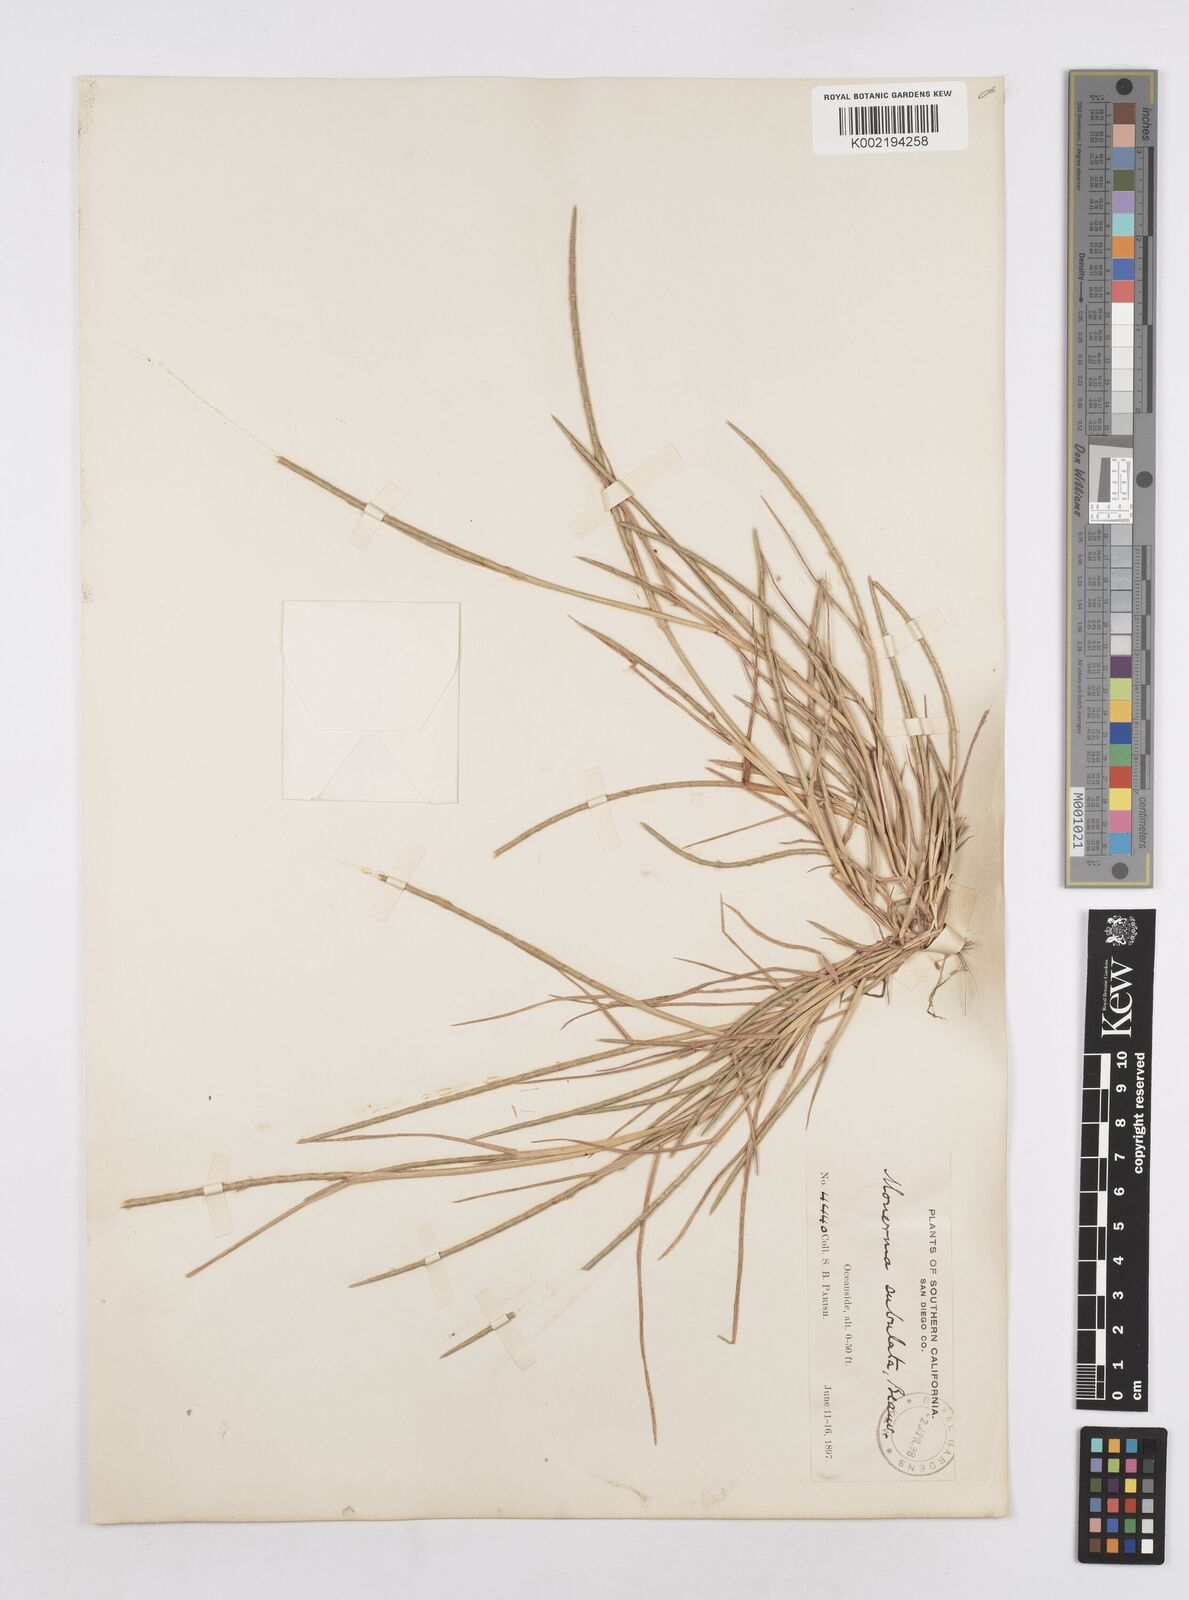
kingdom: Plantae
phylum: Tracheophyta
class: Liliopsida
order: Poales
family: Poaceae
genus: Parapholis
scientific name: Parapholis cylindrica
